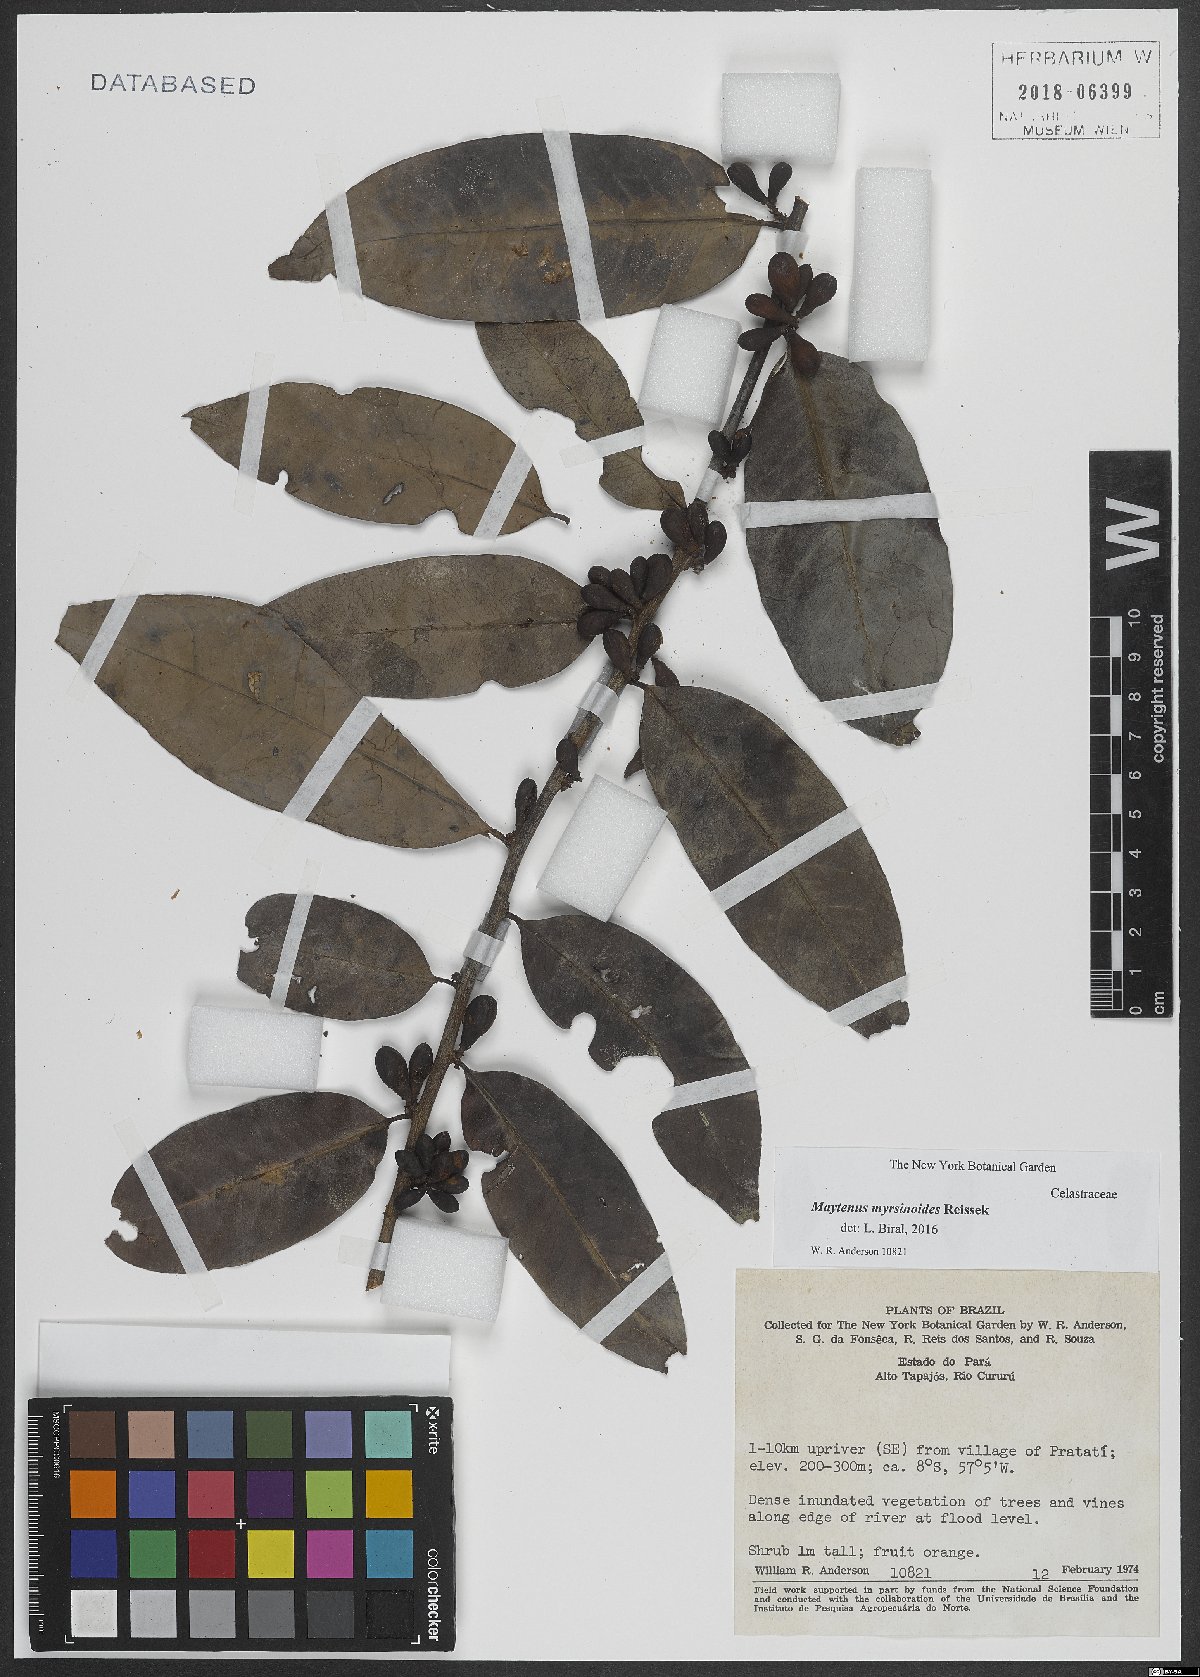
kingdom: Plantae
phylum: Tracheophyta
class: Magnoliopsida
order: Celastrales
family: Celastraceae
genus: Monteverdia
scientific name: Monteverdia myrsinoides
